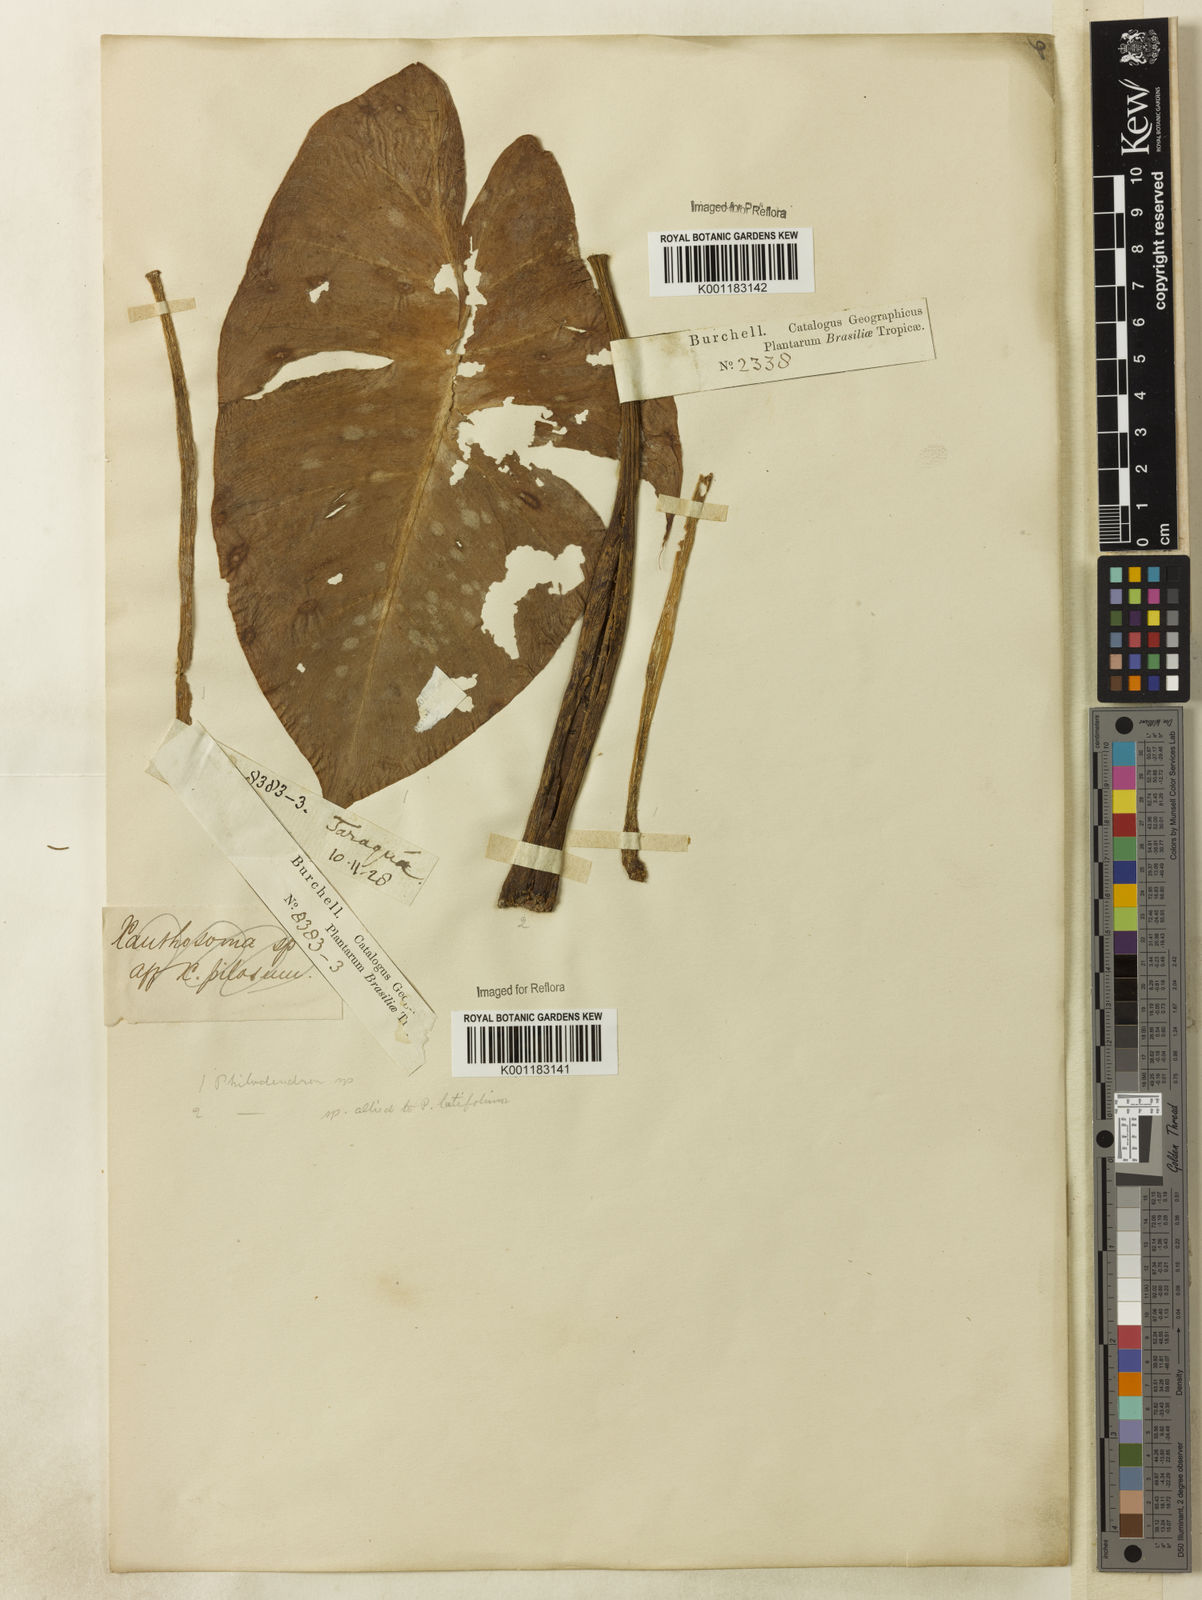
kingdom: Plantae
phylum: Tracheophyta
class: Liliopsida
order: Alismatales
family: Araceae
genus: Philodendron
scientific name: Philodendron cordatum
